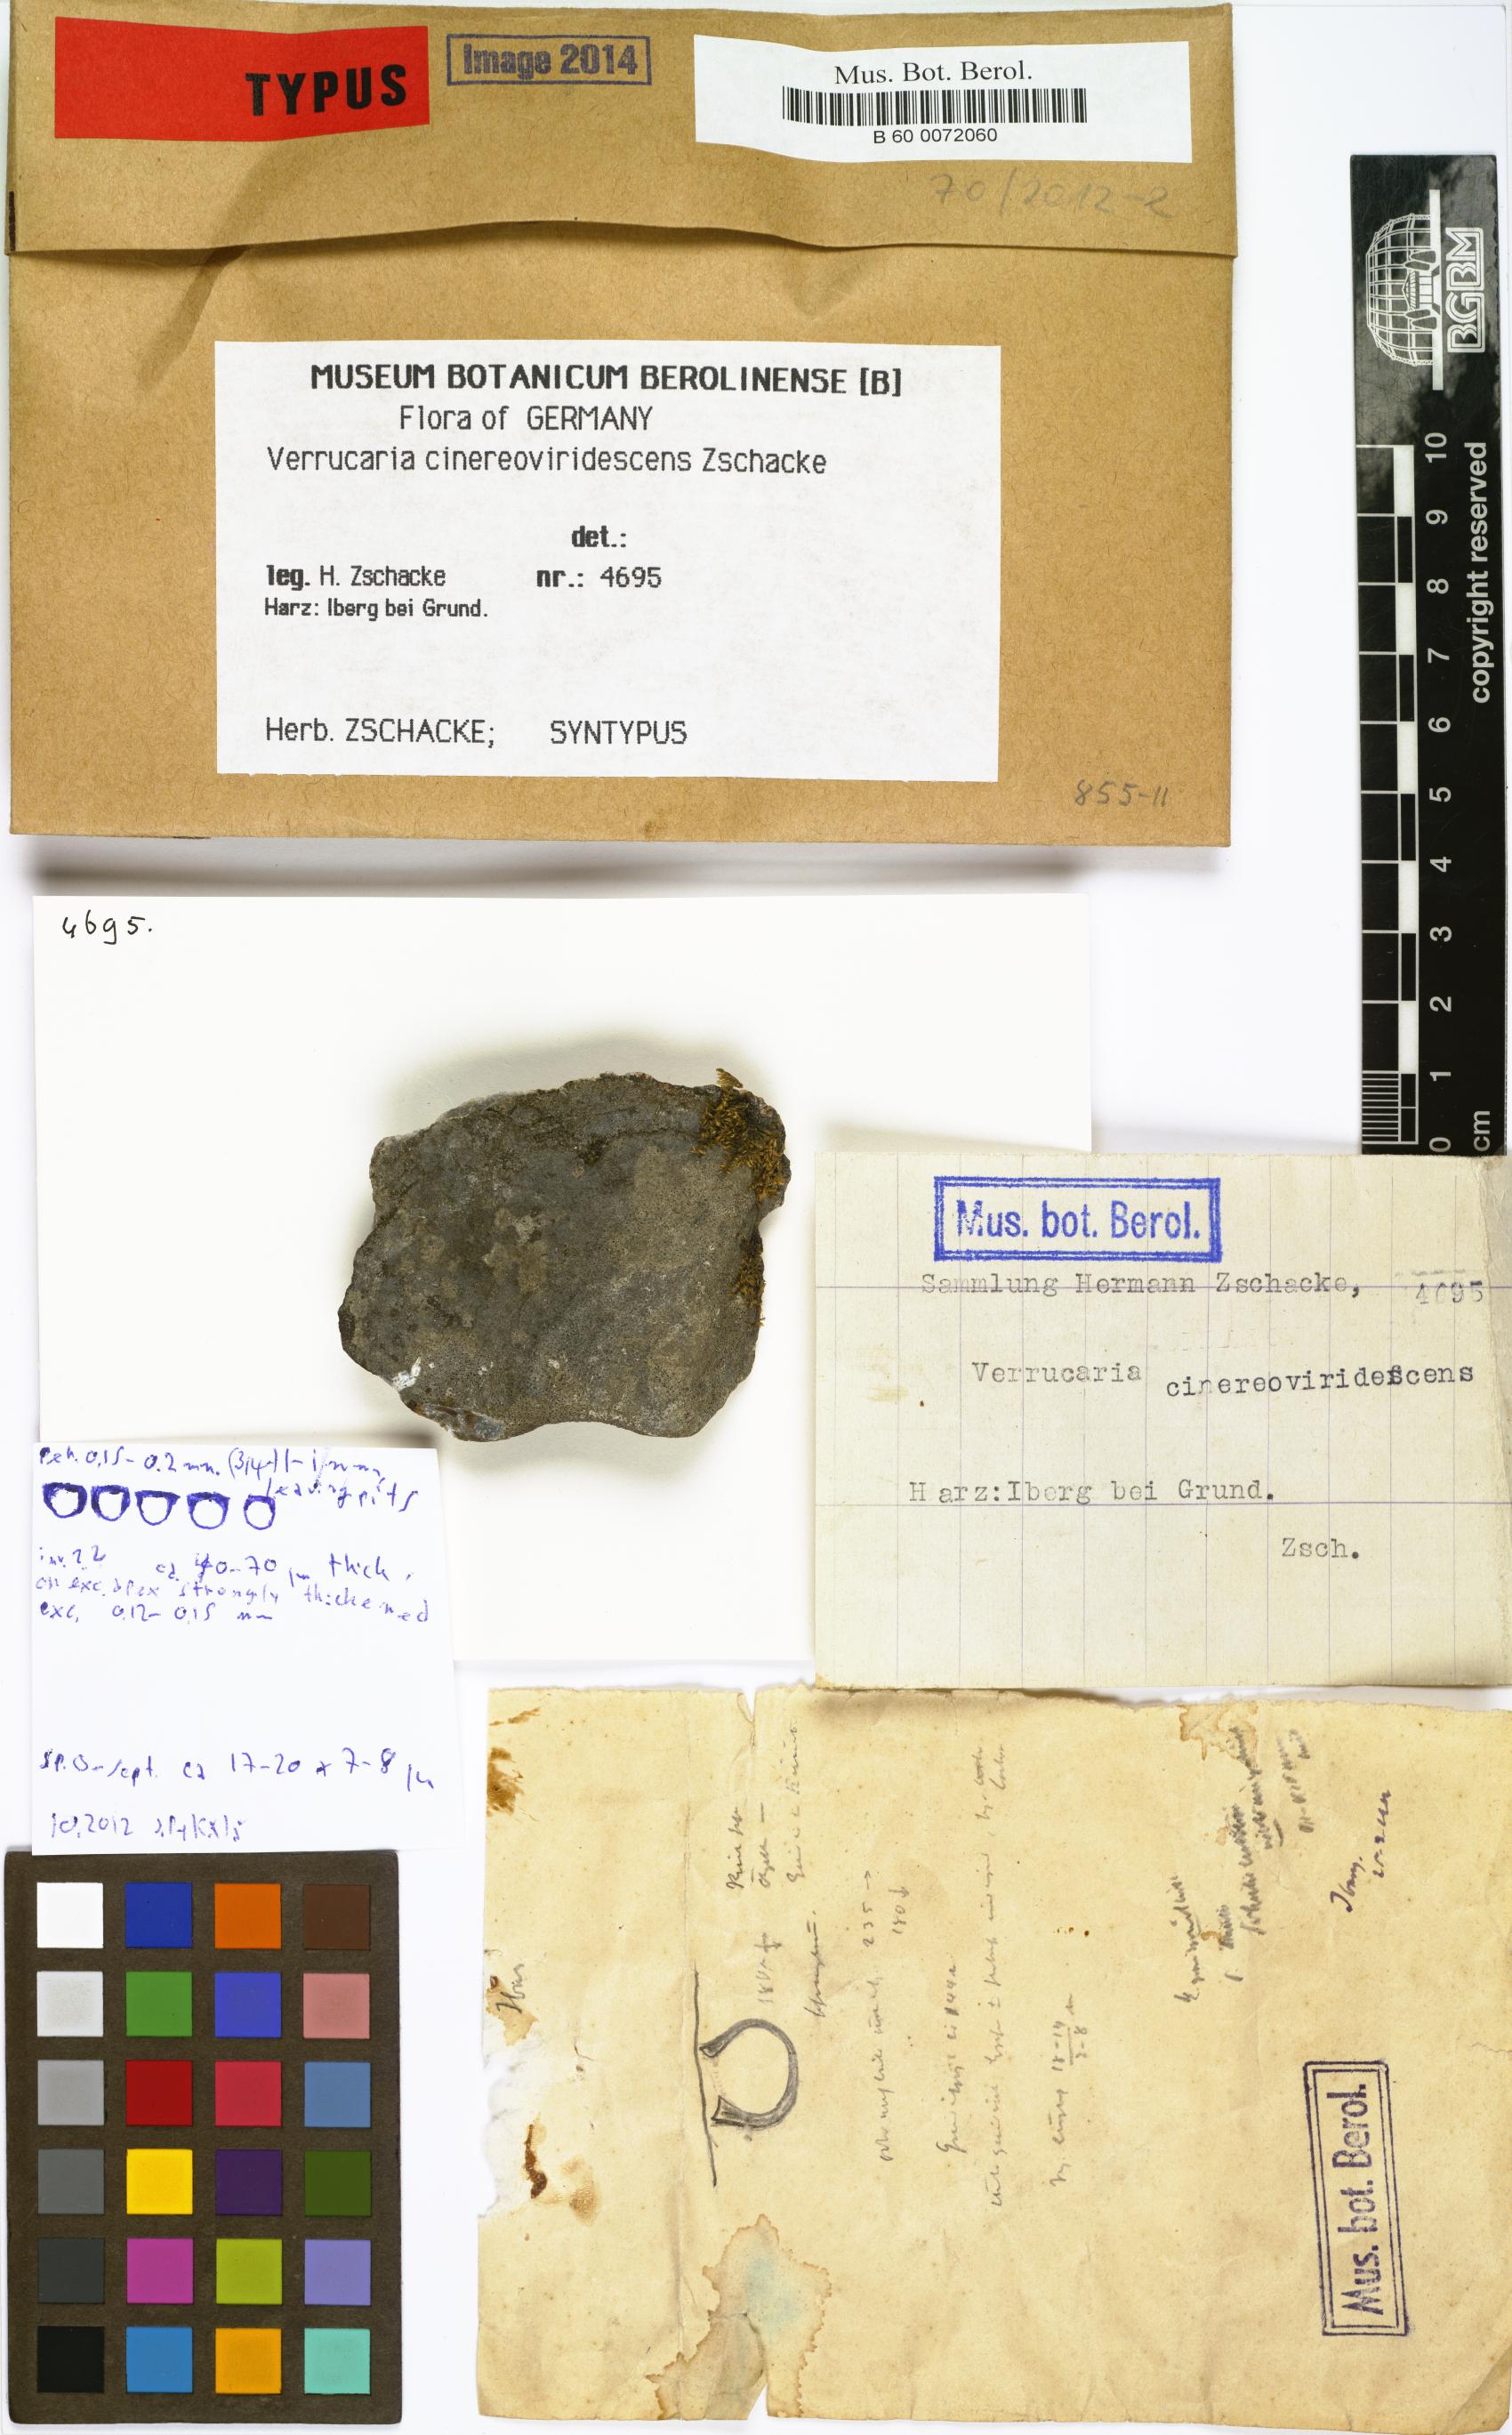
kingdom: Fungi
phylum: Ascomycota
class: Eurotiomycetes
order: Verrucariales
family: Verrucariaceae
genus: Verrucaria
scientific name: Verrucaria
